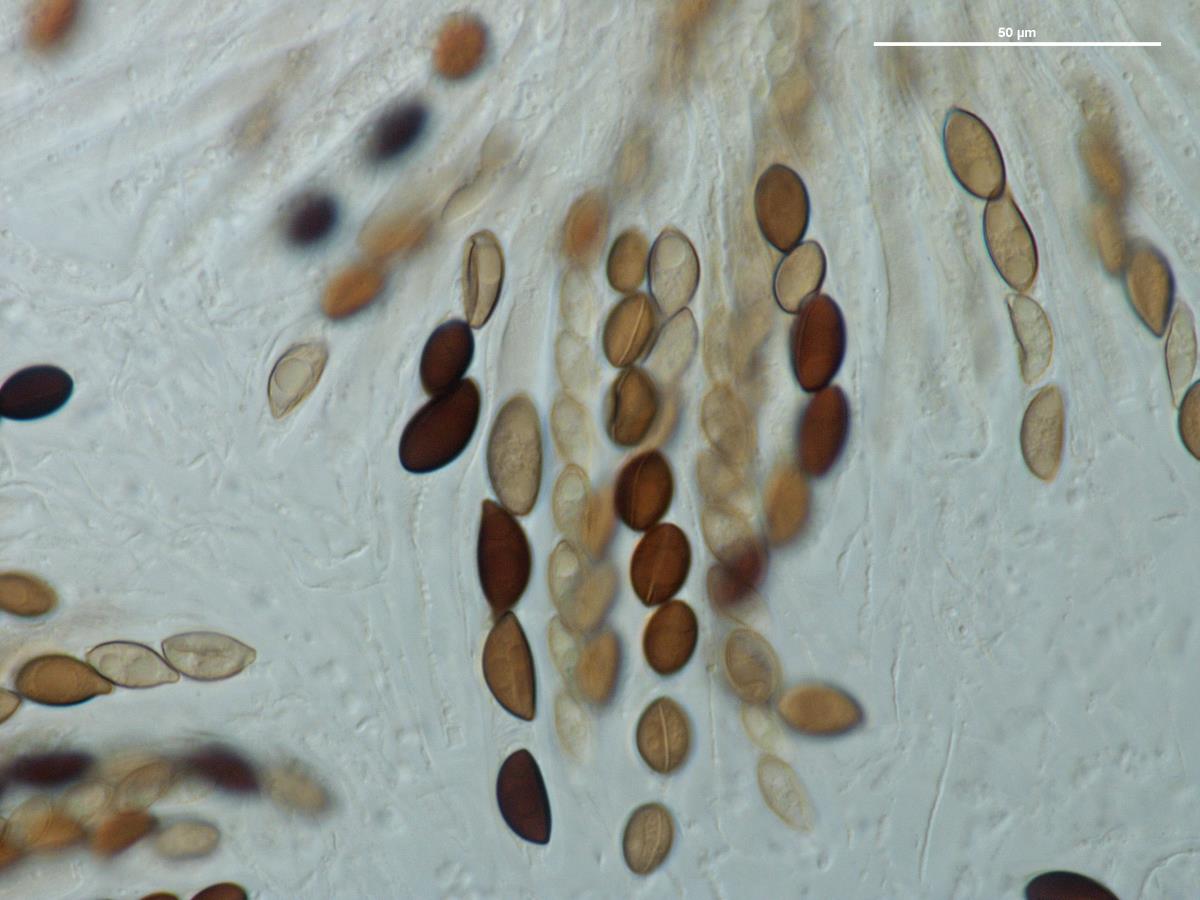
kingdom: Fungi
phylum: Ascomycota
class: Sordariomycetes
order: Xylariales
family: Hypoxylaceae
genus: Hypoxylon
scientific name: Hypoxylon
